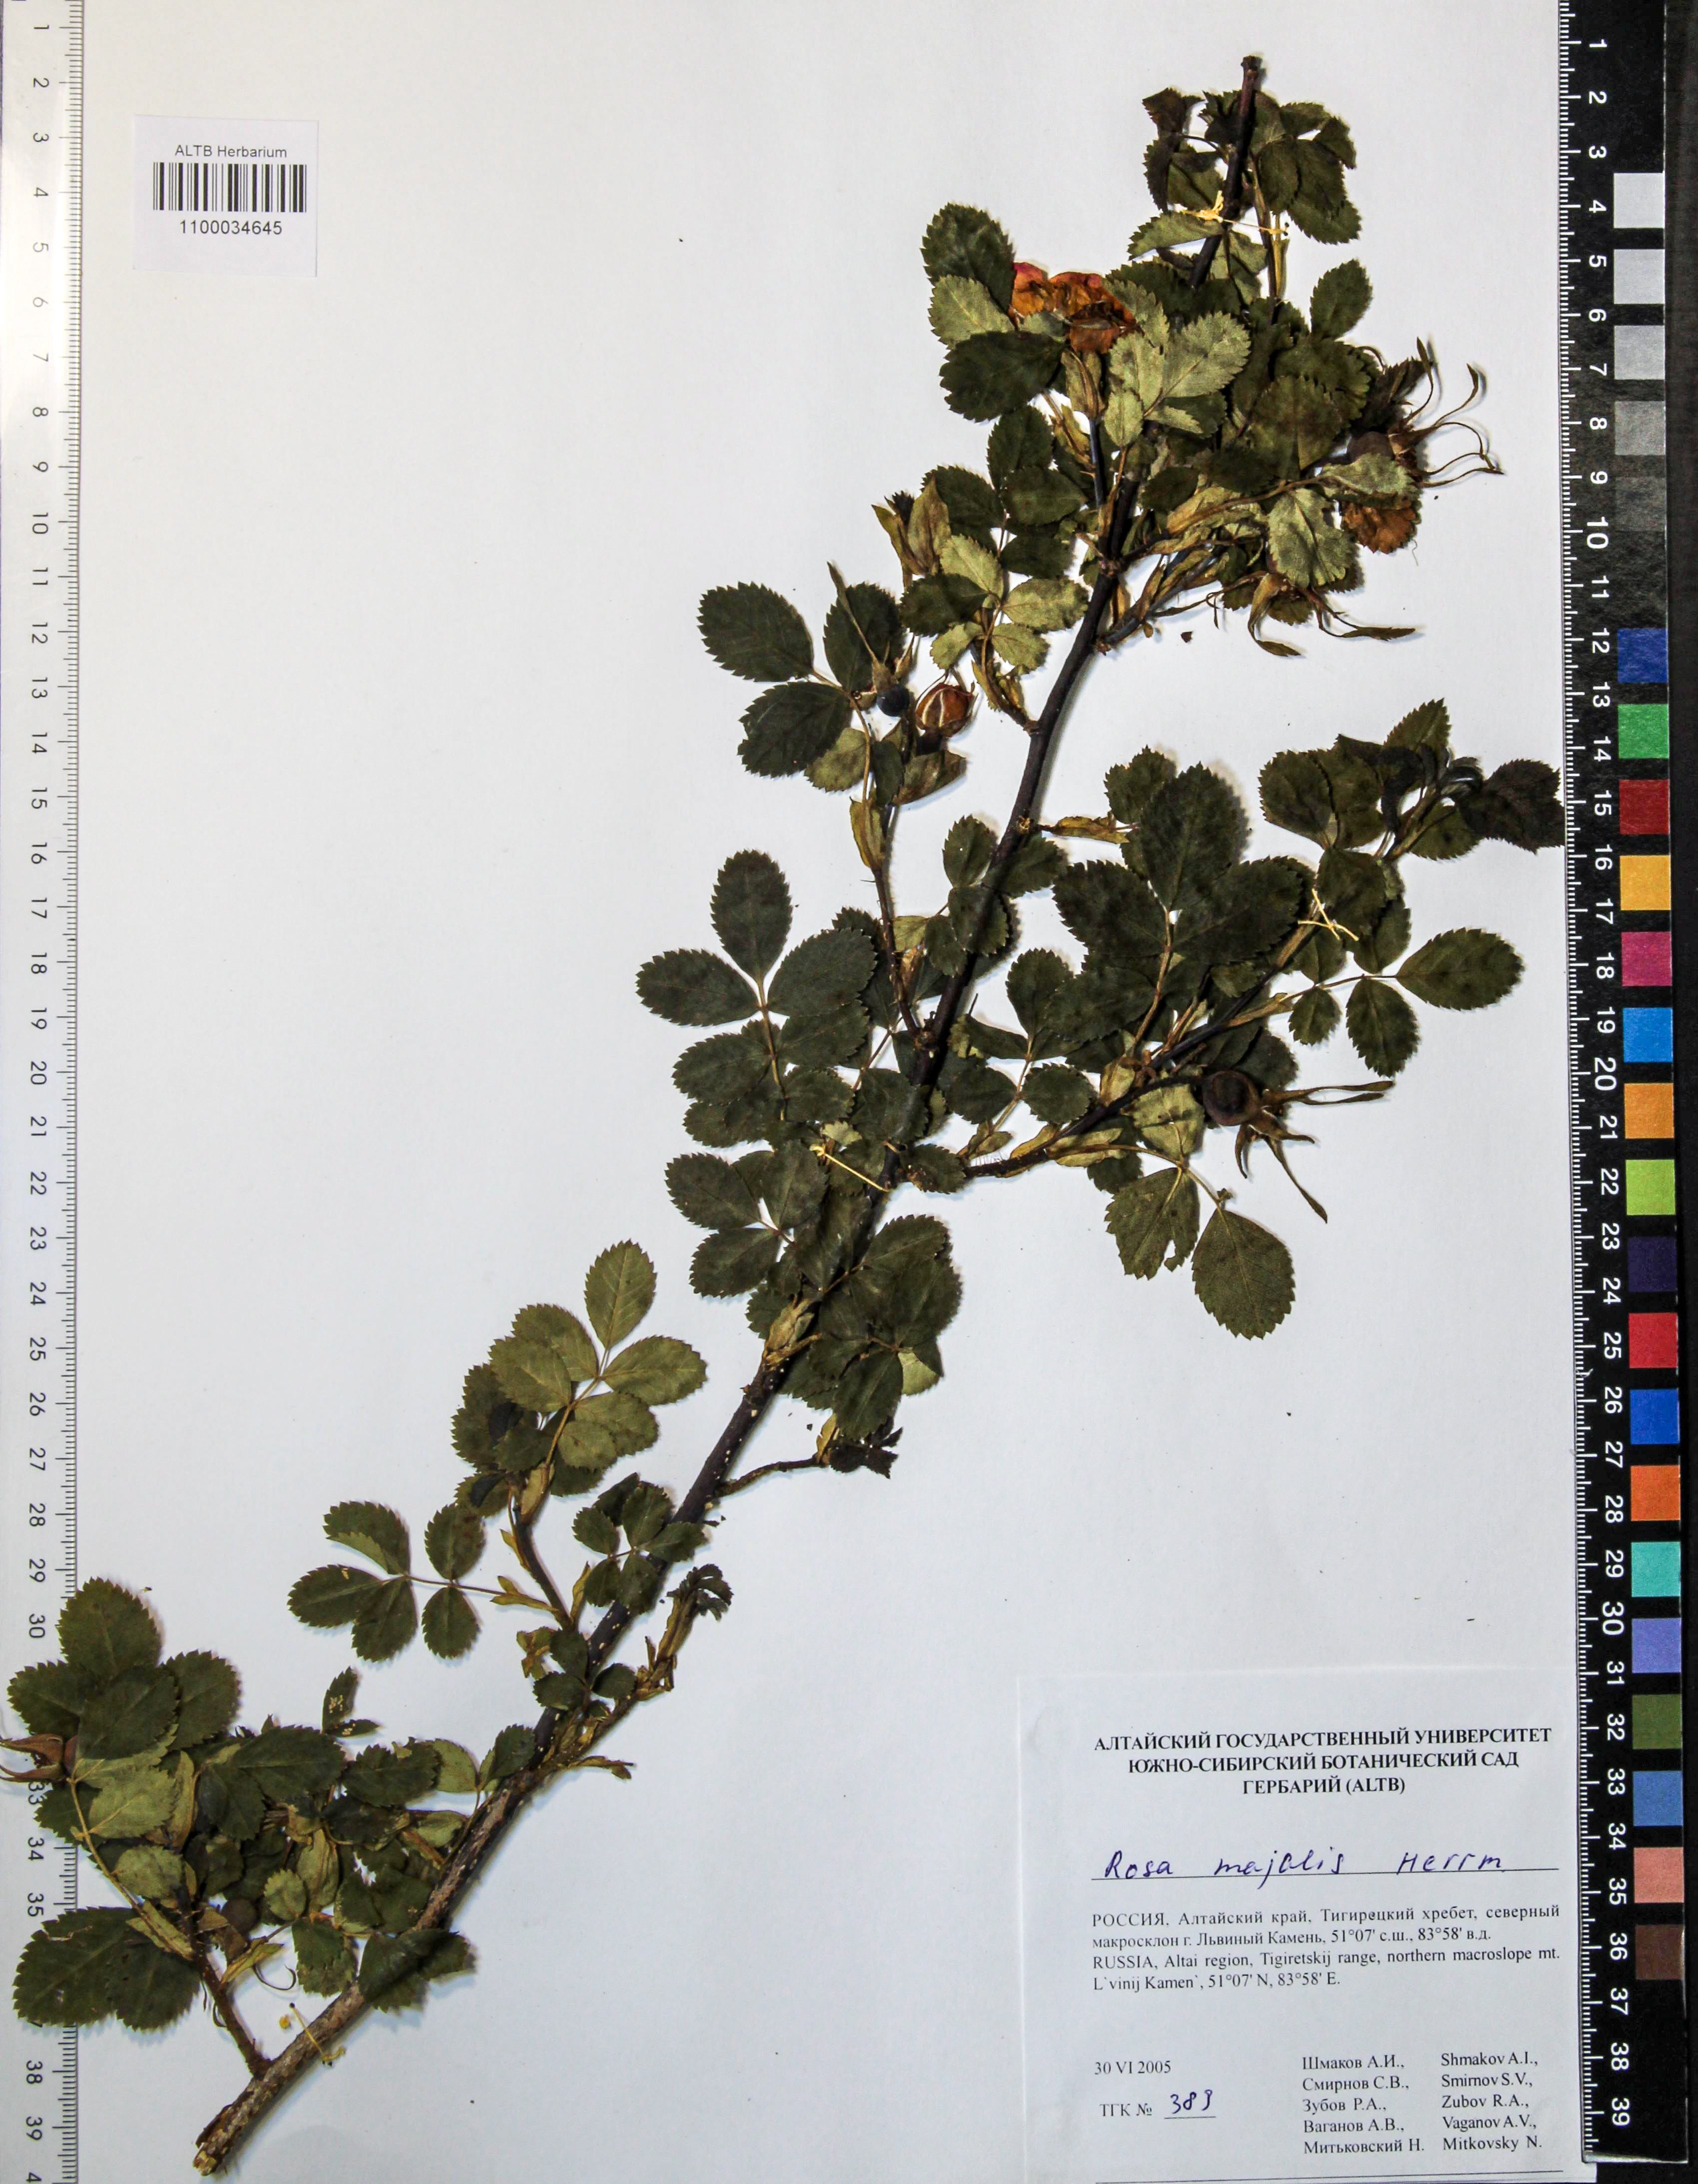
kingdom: Plantae
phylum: Tracheophyta
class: Magnoliopsida
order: Rosales
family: Rosaceae
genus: Rosa
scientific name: Rosa majalis
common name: Cinnamon rose
